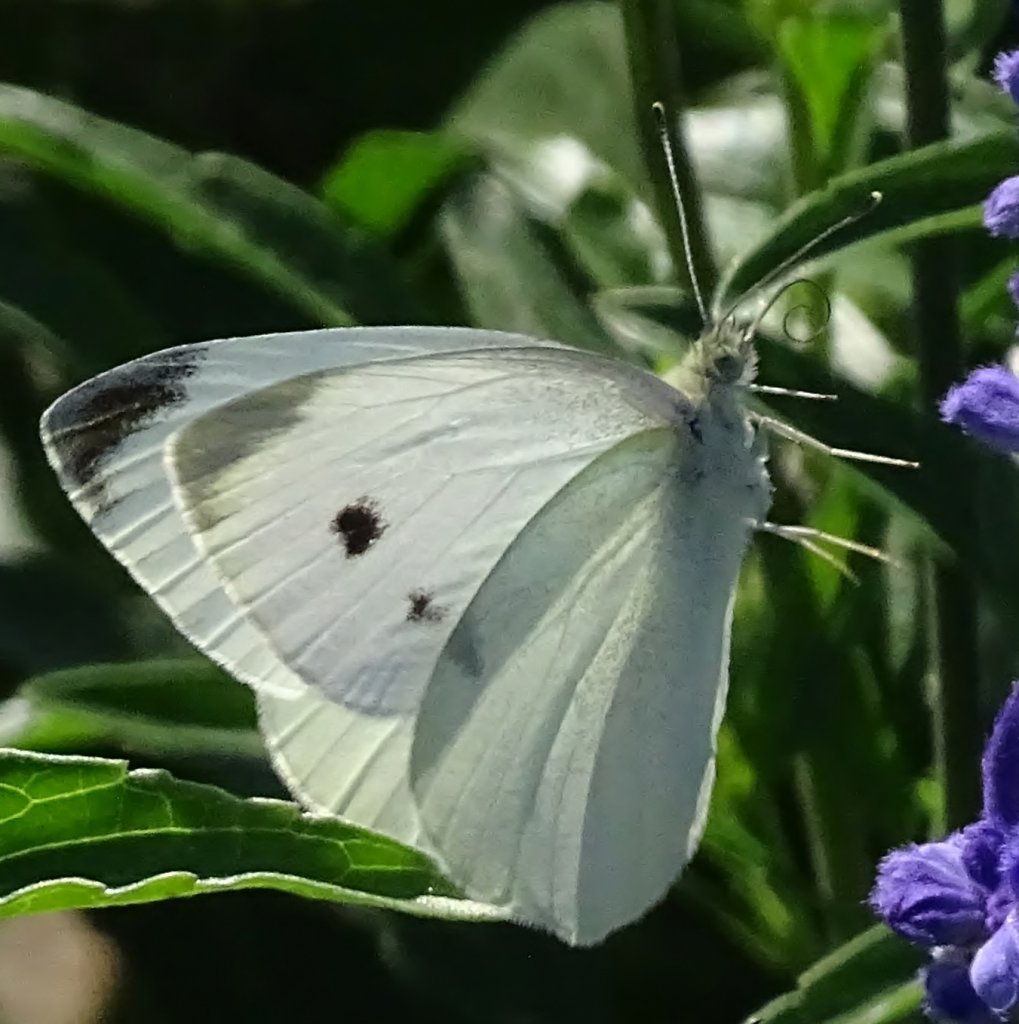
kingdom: Animalia
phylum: Arthropoda
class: Insecta
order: Lepidoptera
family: Pieridae
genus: Pieris
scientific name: Pieris rapae
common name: Cabbage White
